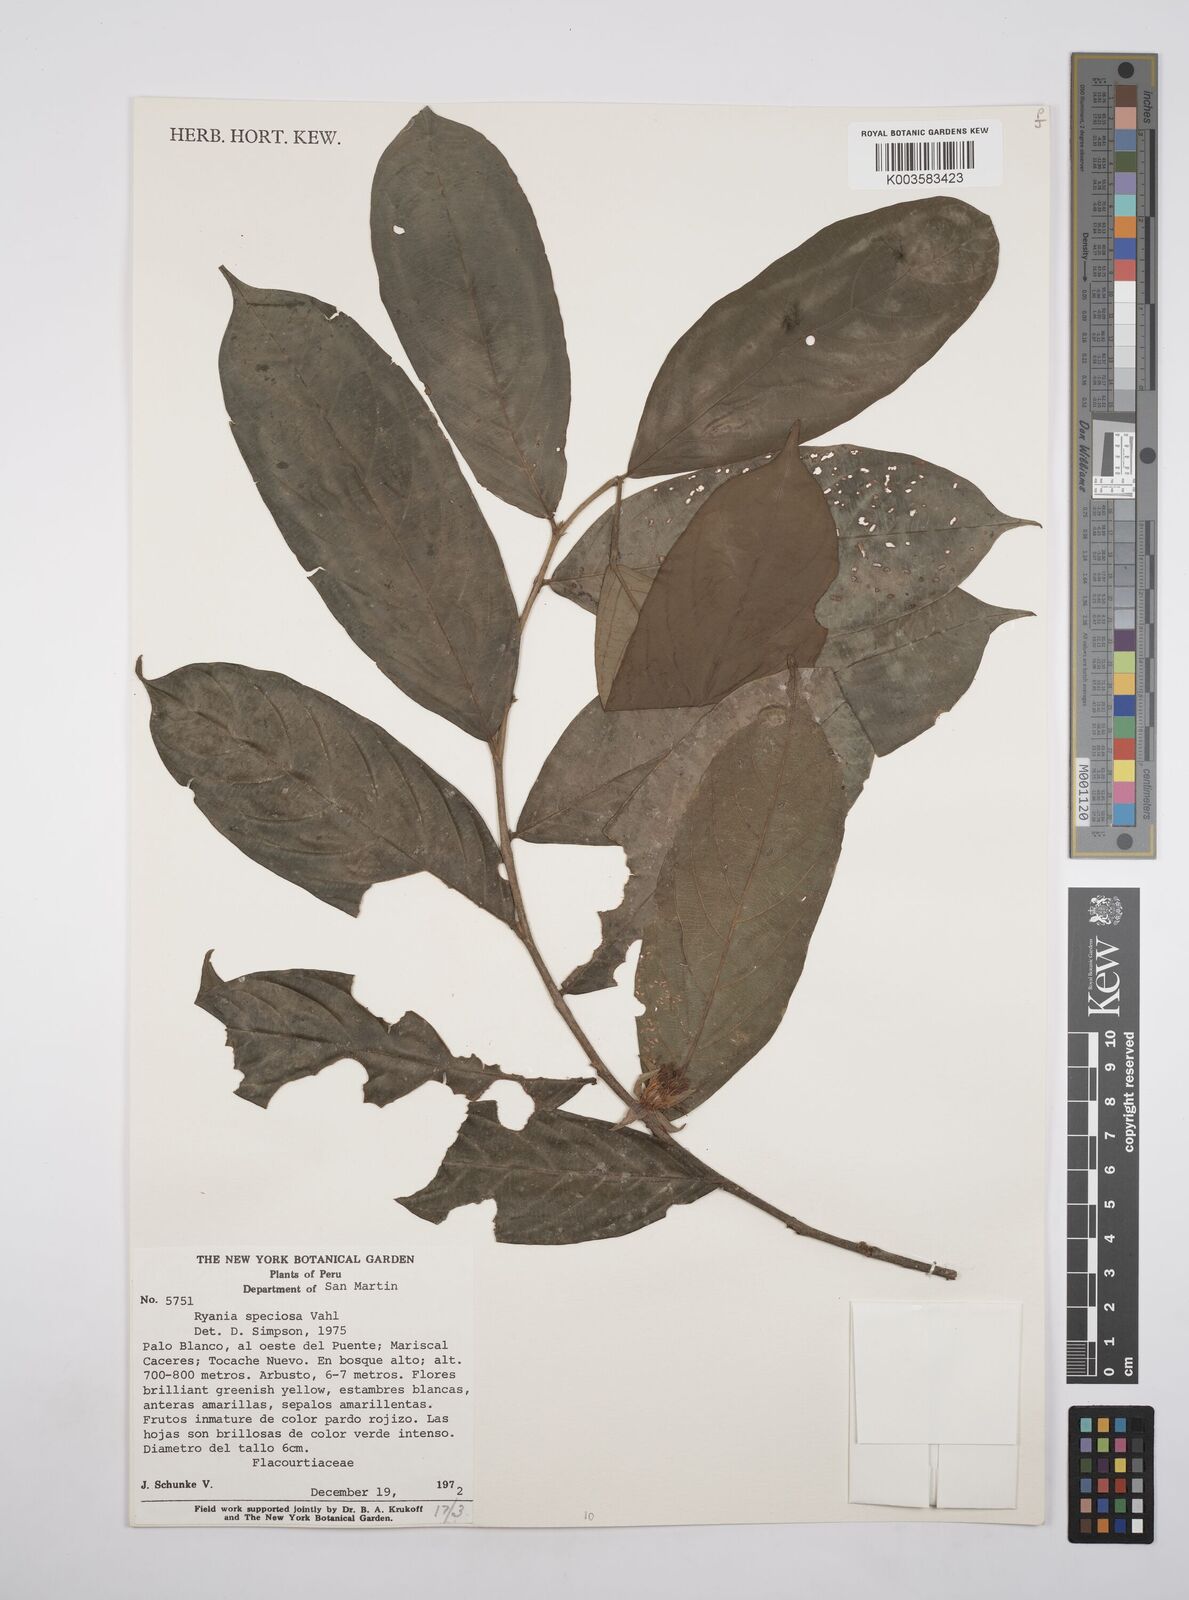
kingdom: Plantae
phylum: Tracheophyta
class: Magnoliopsida
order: Malpighiales
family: Salicaceae
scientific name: Salicaceae
